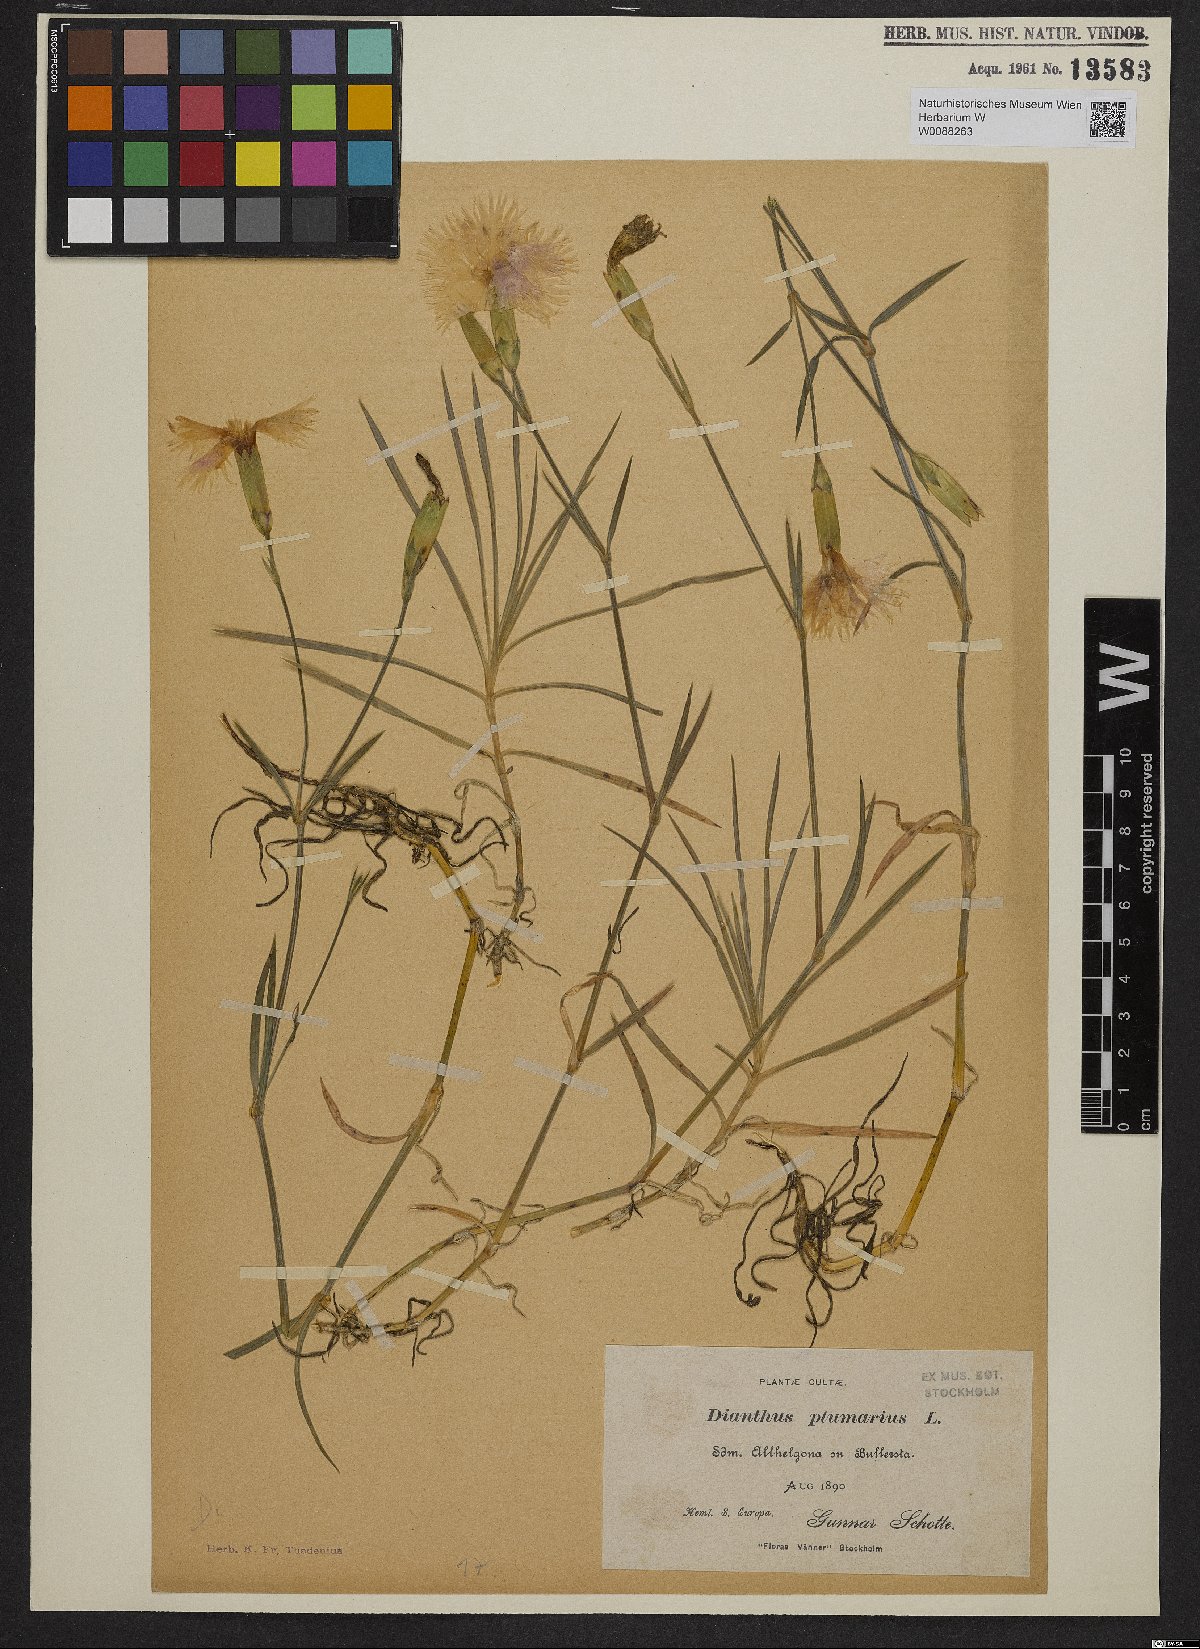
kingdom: Plantae
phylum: Tracheophyta
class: Magnoliopsida
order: Caryophyllales
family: Caryophyllaceae
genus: Dianthus
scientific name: Dianthus plumarius
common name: Pink
